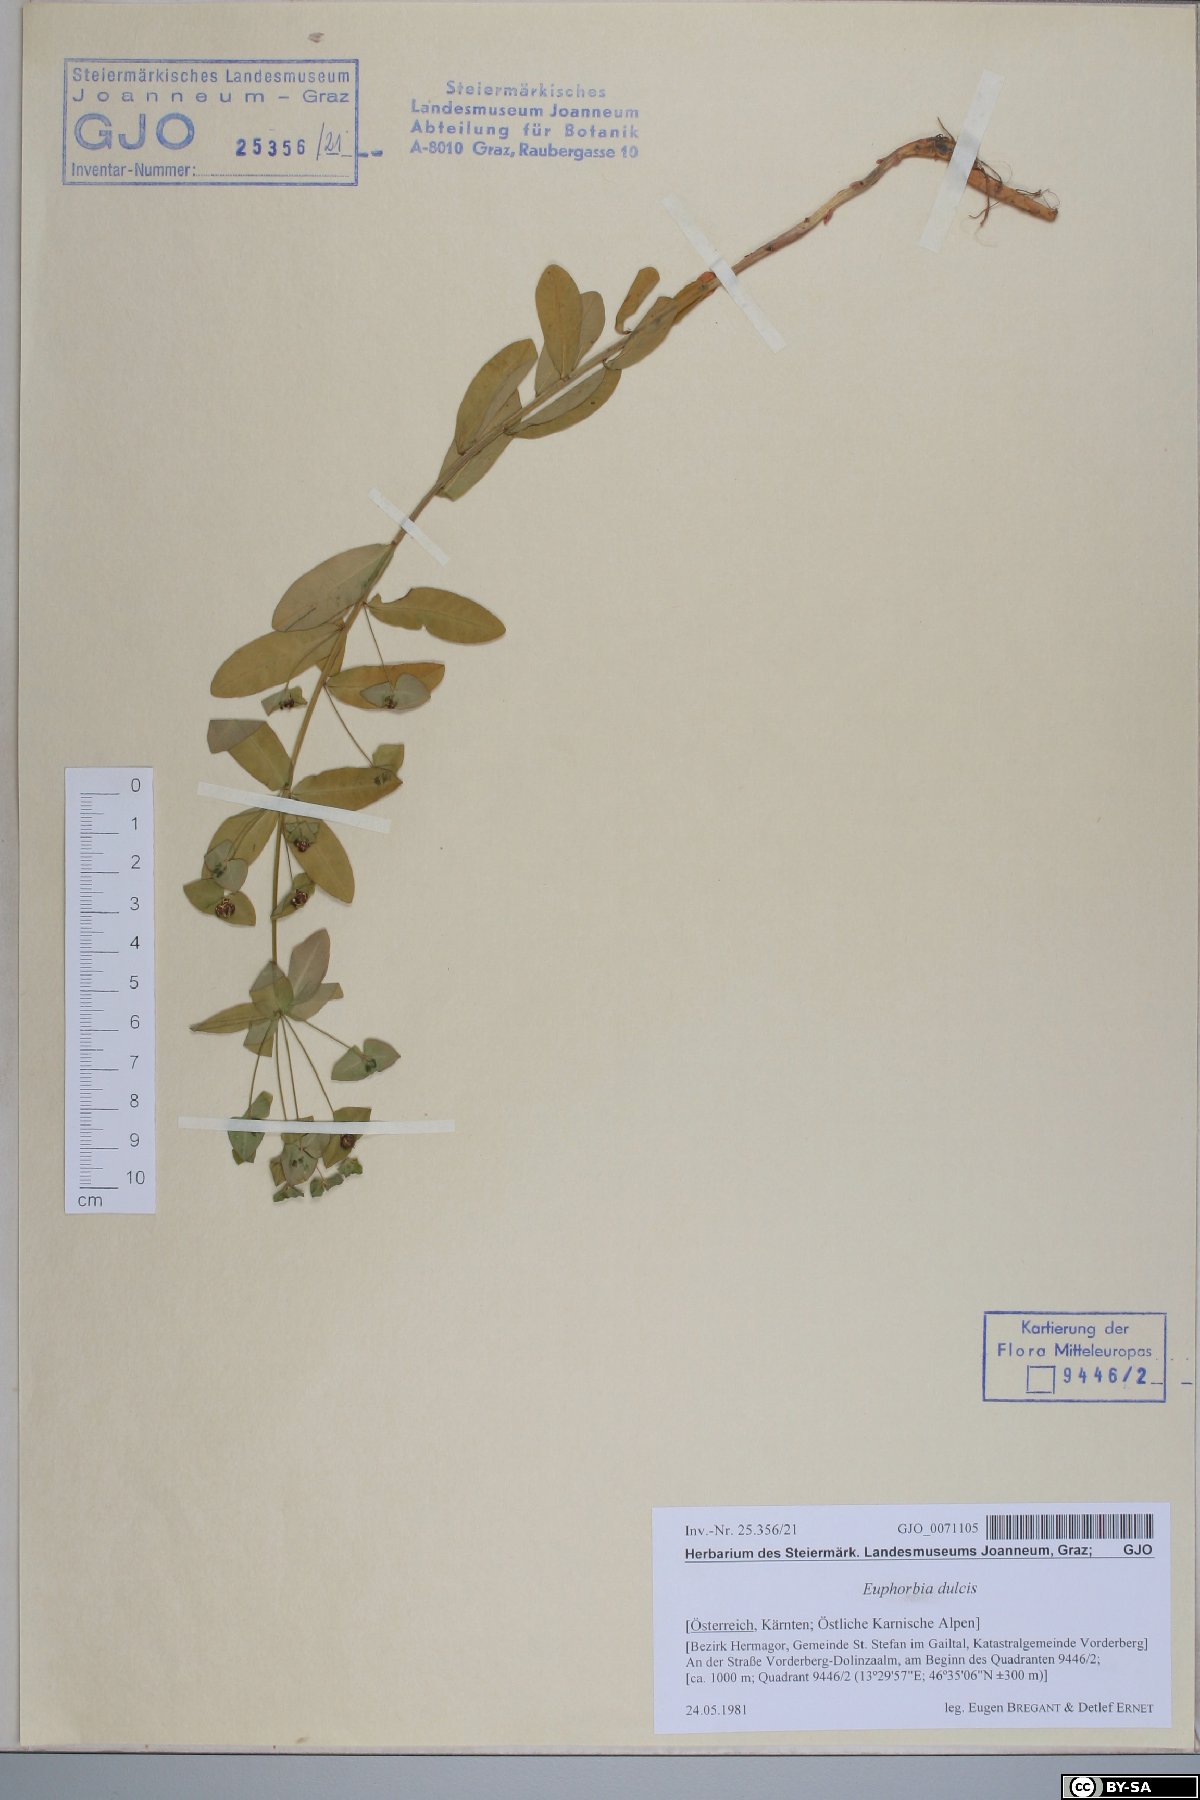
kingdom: Plantae
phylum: Tracheophyta
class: Magnoliopsida
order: Malpighiales
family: Euphorbiaceae
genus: Euphorbia
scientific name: Euphorbia dulcis
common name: Sweet spurge
